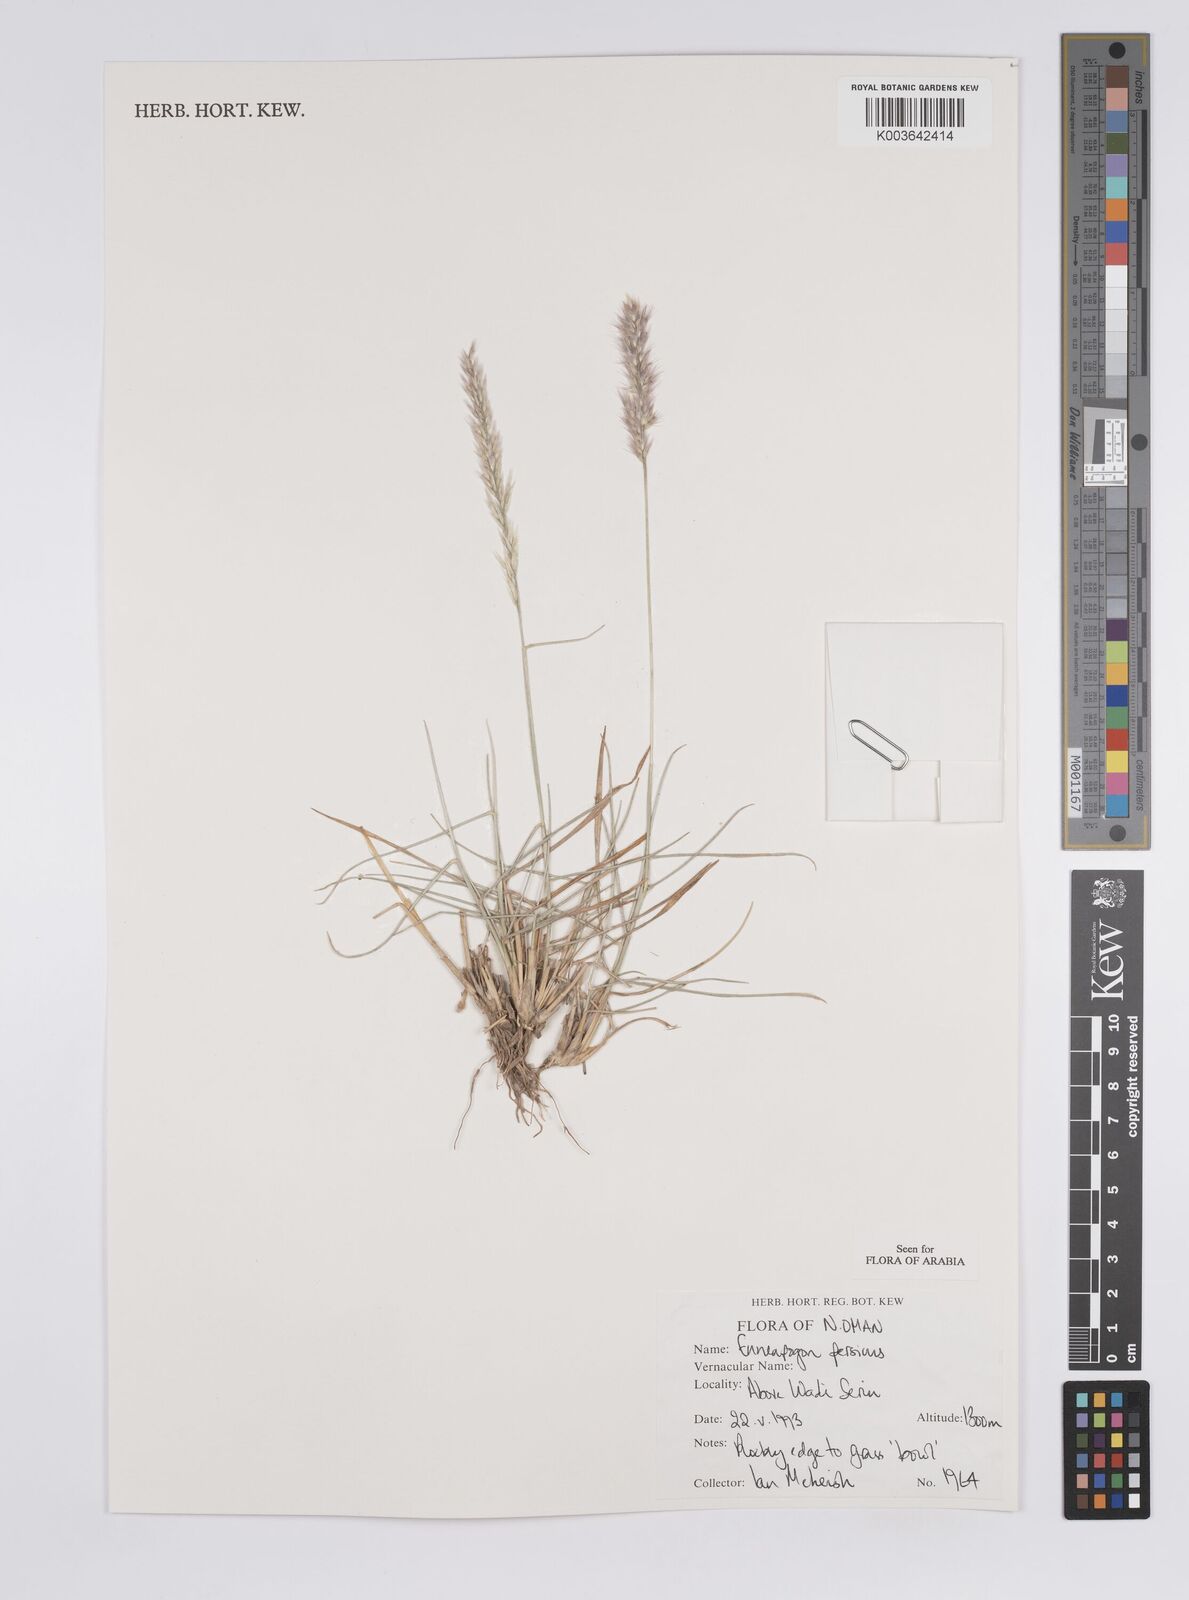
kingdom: Plantae
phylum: Tracheophyta
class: Liliopsida
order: Poales
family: Poaceae
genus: Enneapogon
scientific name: Enneapogon persicus
